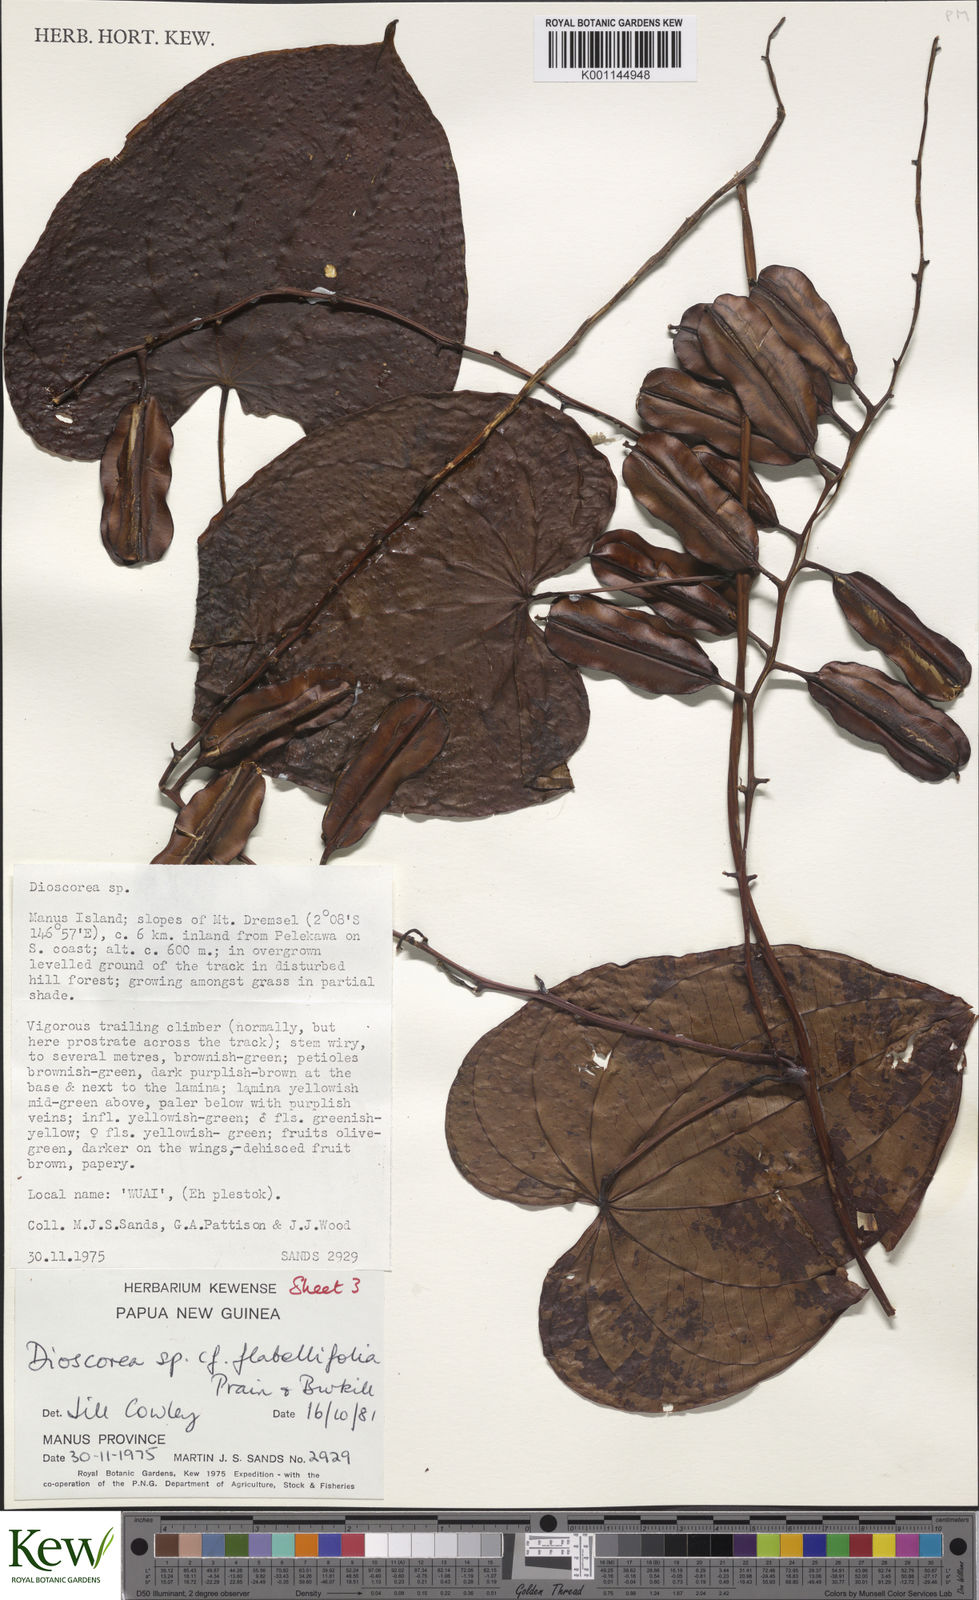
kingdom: Plantae
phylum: Tracheophyta
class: Liliopsida
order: Dioscoreales
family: Dioscoreaceae
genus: Dioscorea
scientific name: Dioscorea flabellifolia
